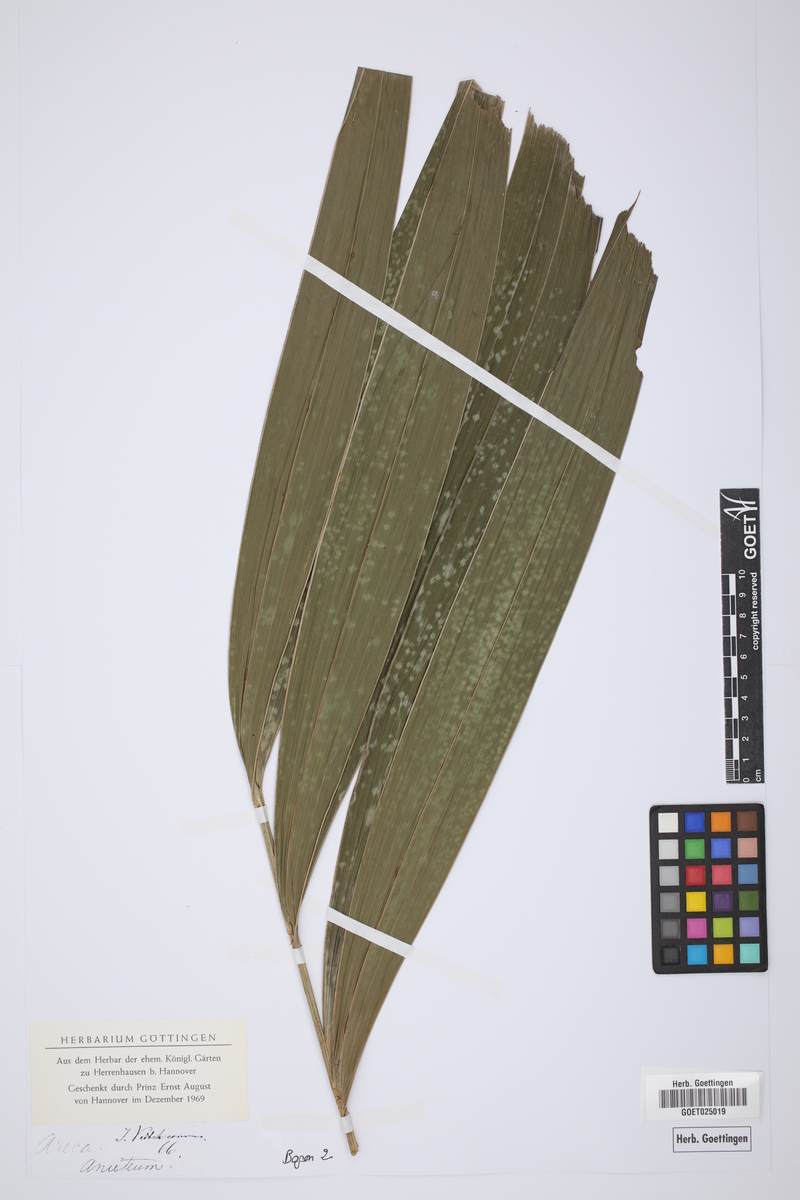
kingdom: Plantae
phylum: Tracheophyta
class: Liliopsida
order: Arecales
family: Arecaceae
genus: Areca
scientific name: Areca
